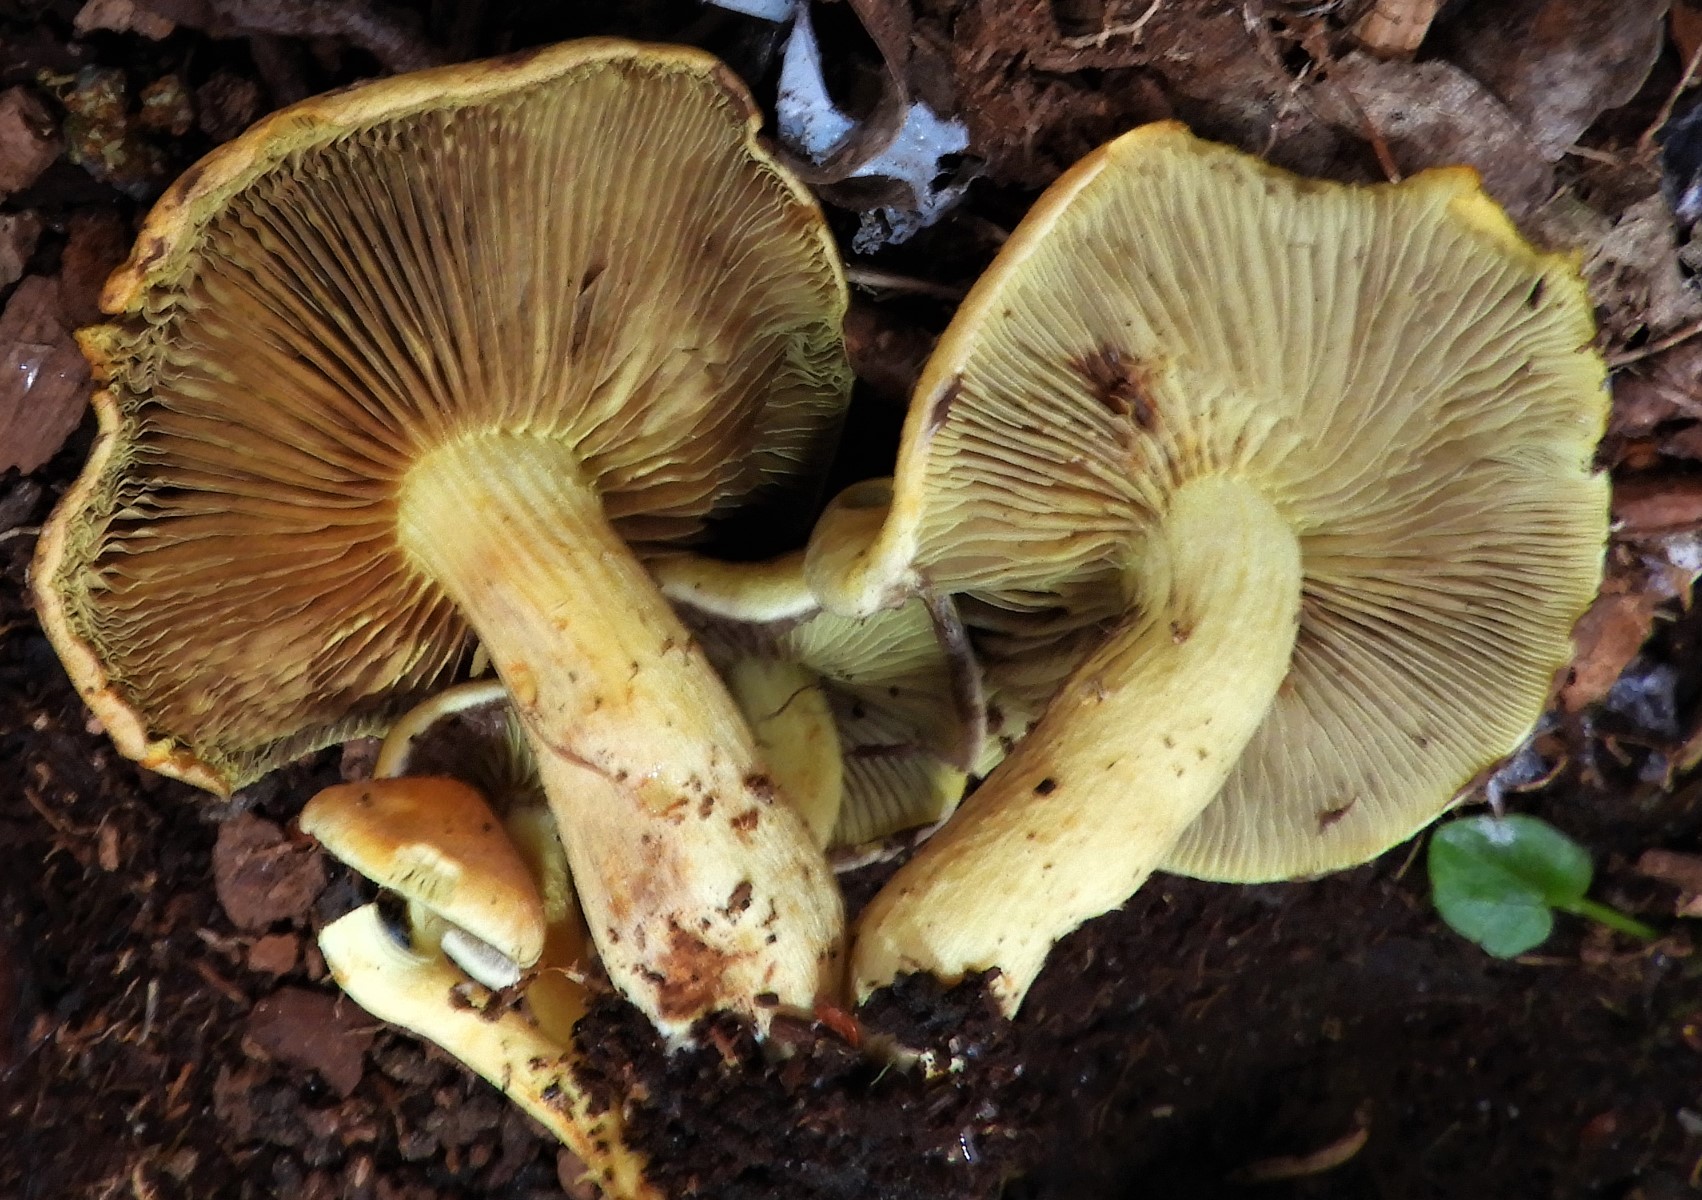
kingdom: Fungi
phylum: Basidiomycota
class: Agaricomycetes
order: Agaricales
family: Strophariaceae
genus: Hypholoma
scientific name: Hypholoma fasciculare
